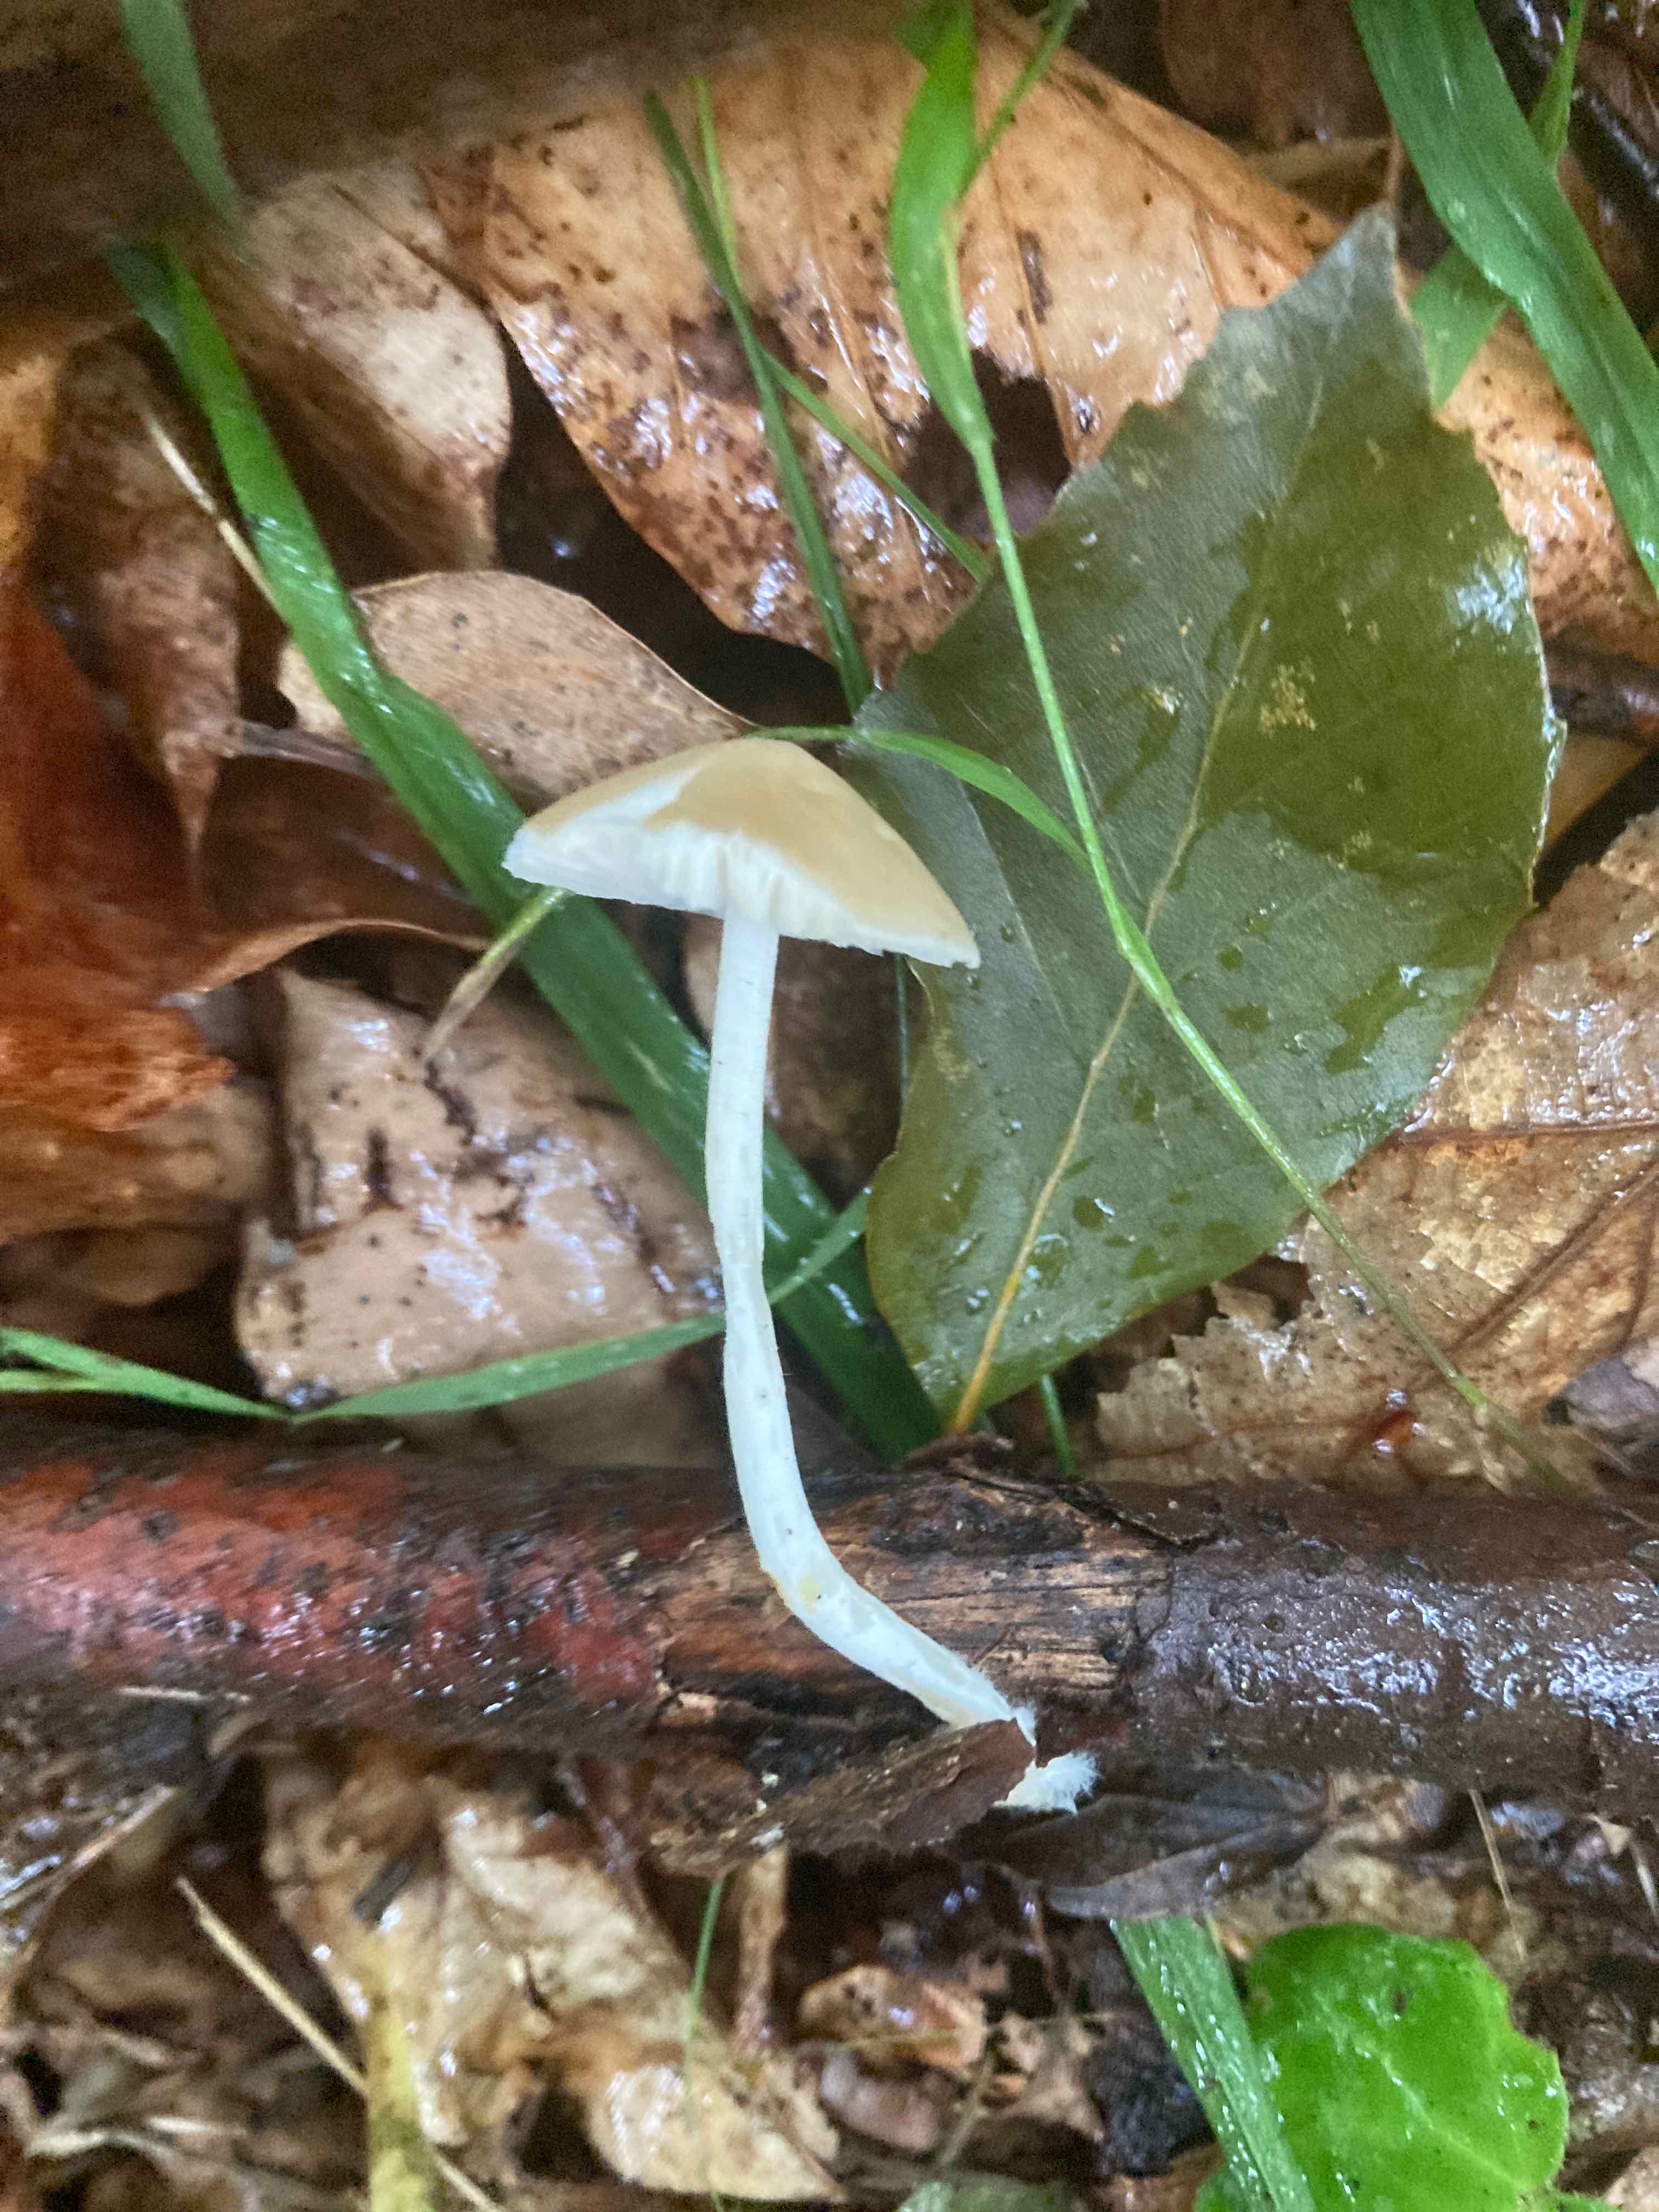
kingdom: Fungi
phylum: Basidiomycota
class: Agaricomycetes
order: Agaricales
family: Porotheleaceae
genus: Hydropodia
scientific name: Hydropodia subalpina
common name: vår-fnugfod
